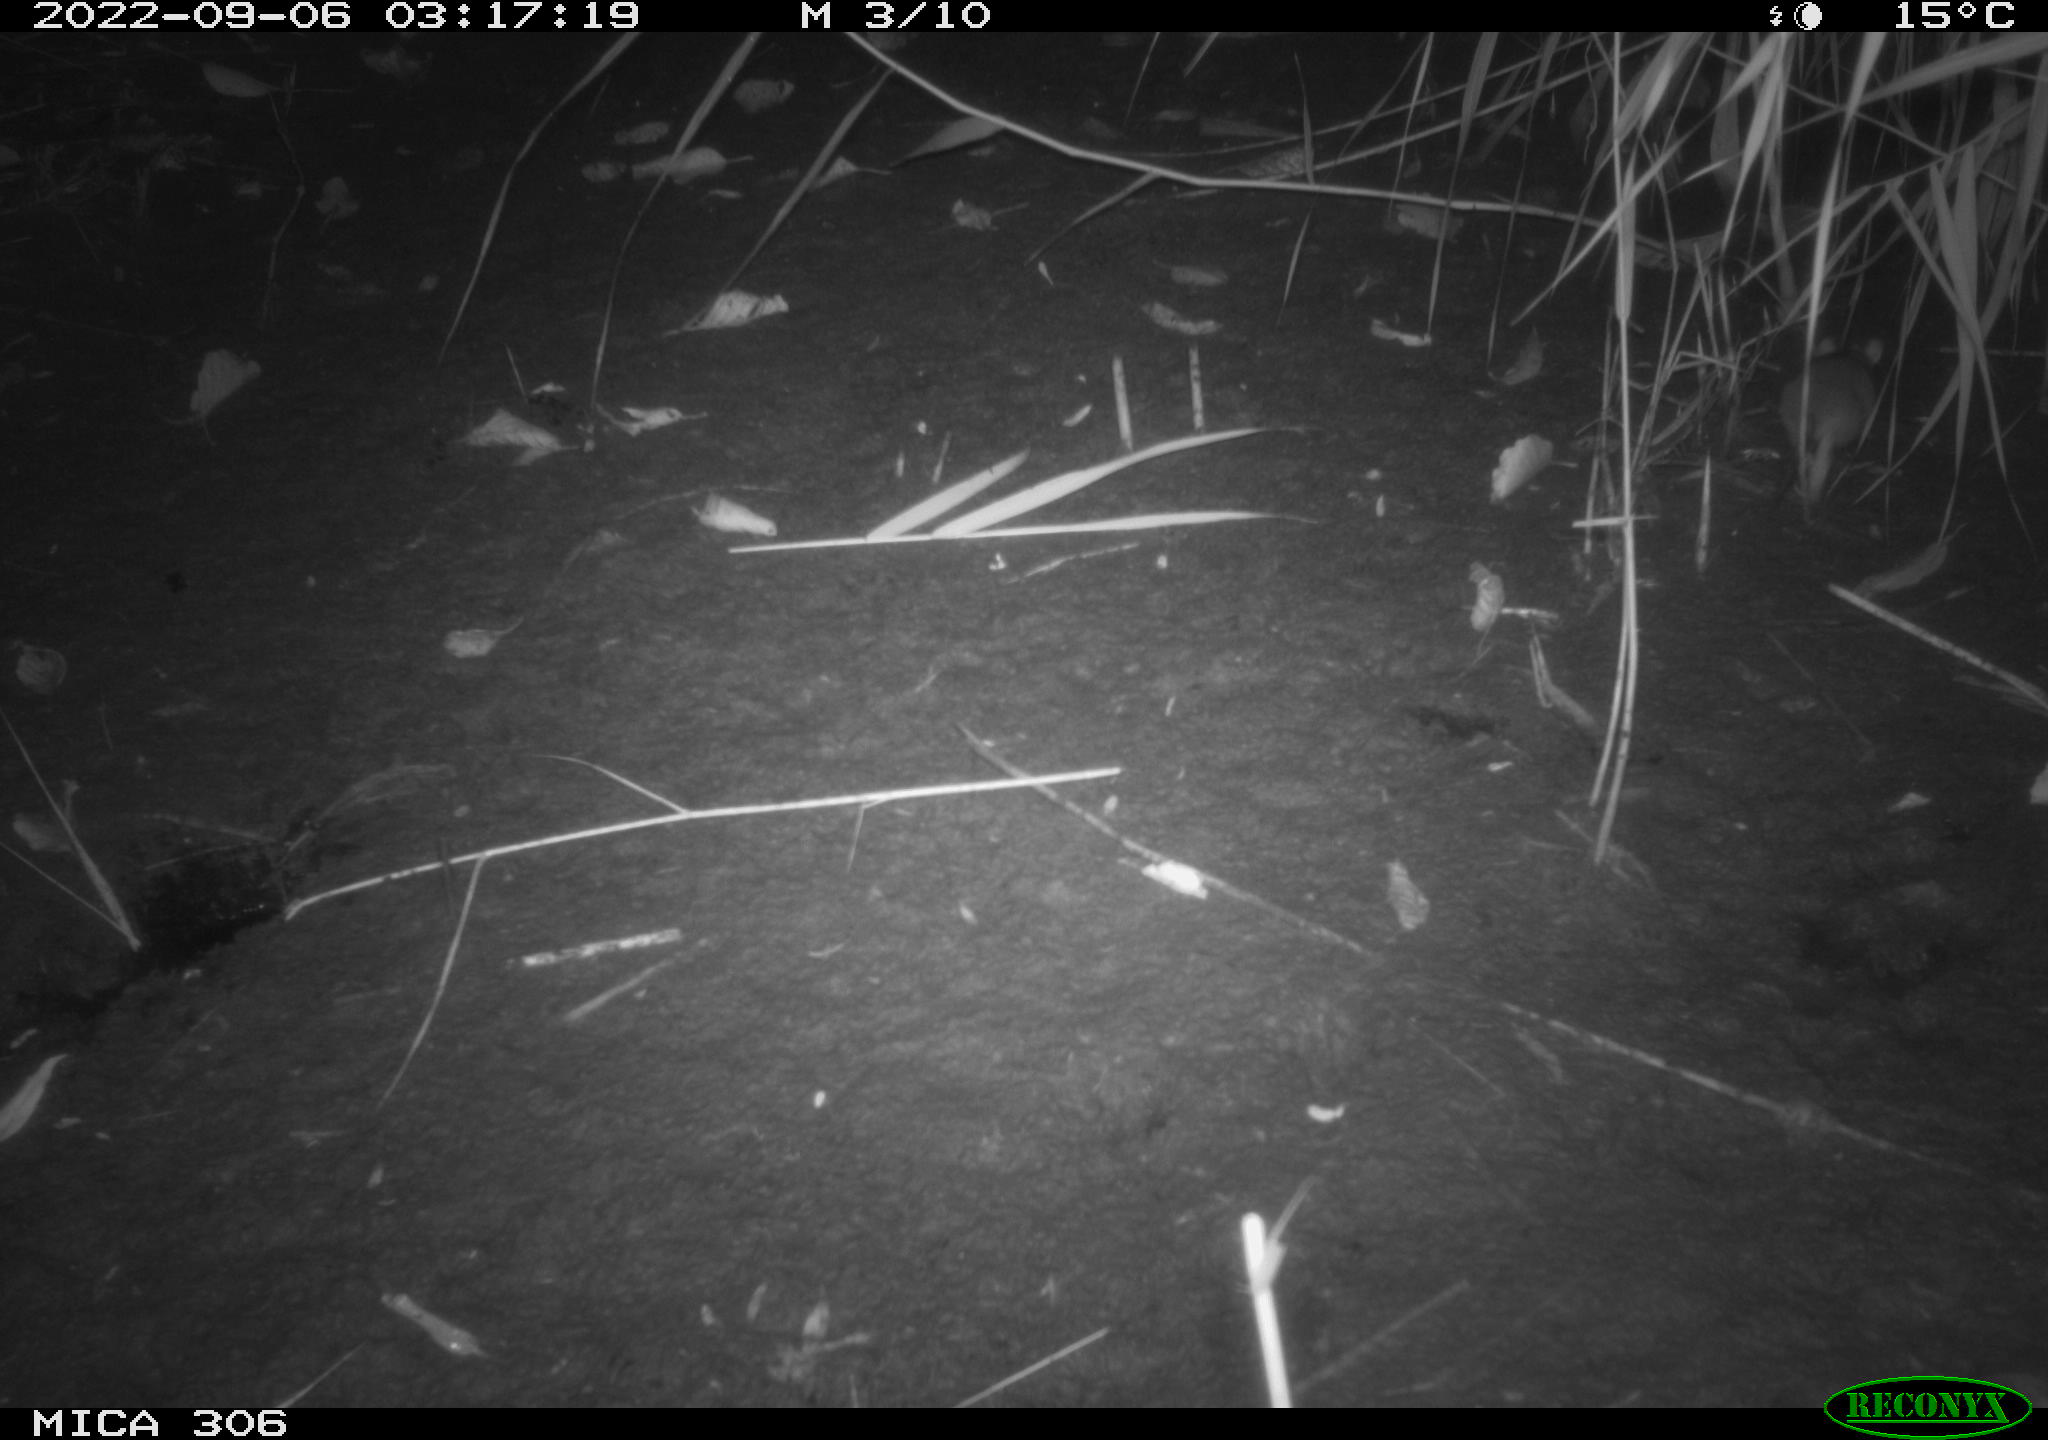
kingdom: Animalia
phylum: Chordata
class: Mammalia
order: Rodentia
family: Muridae
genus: Rattus
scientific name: Rattus norvegicus
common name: Brown rat
